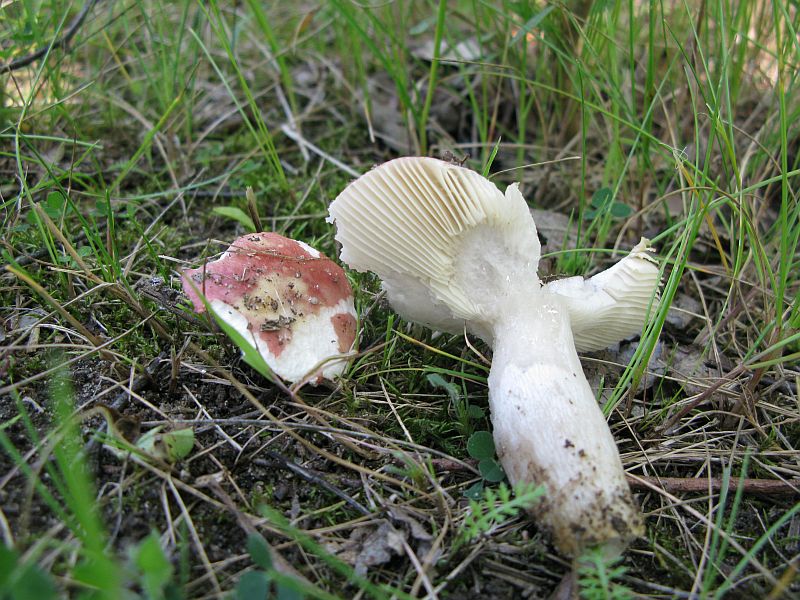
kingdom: Fungi
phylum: Basidiomycota
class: Agaricomycetes
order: Russulales
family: Russulaceae
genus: Russula
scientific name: Russula depallens
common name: falmende skørhat
